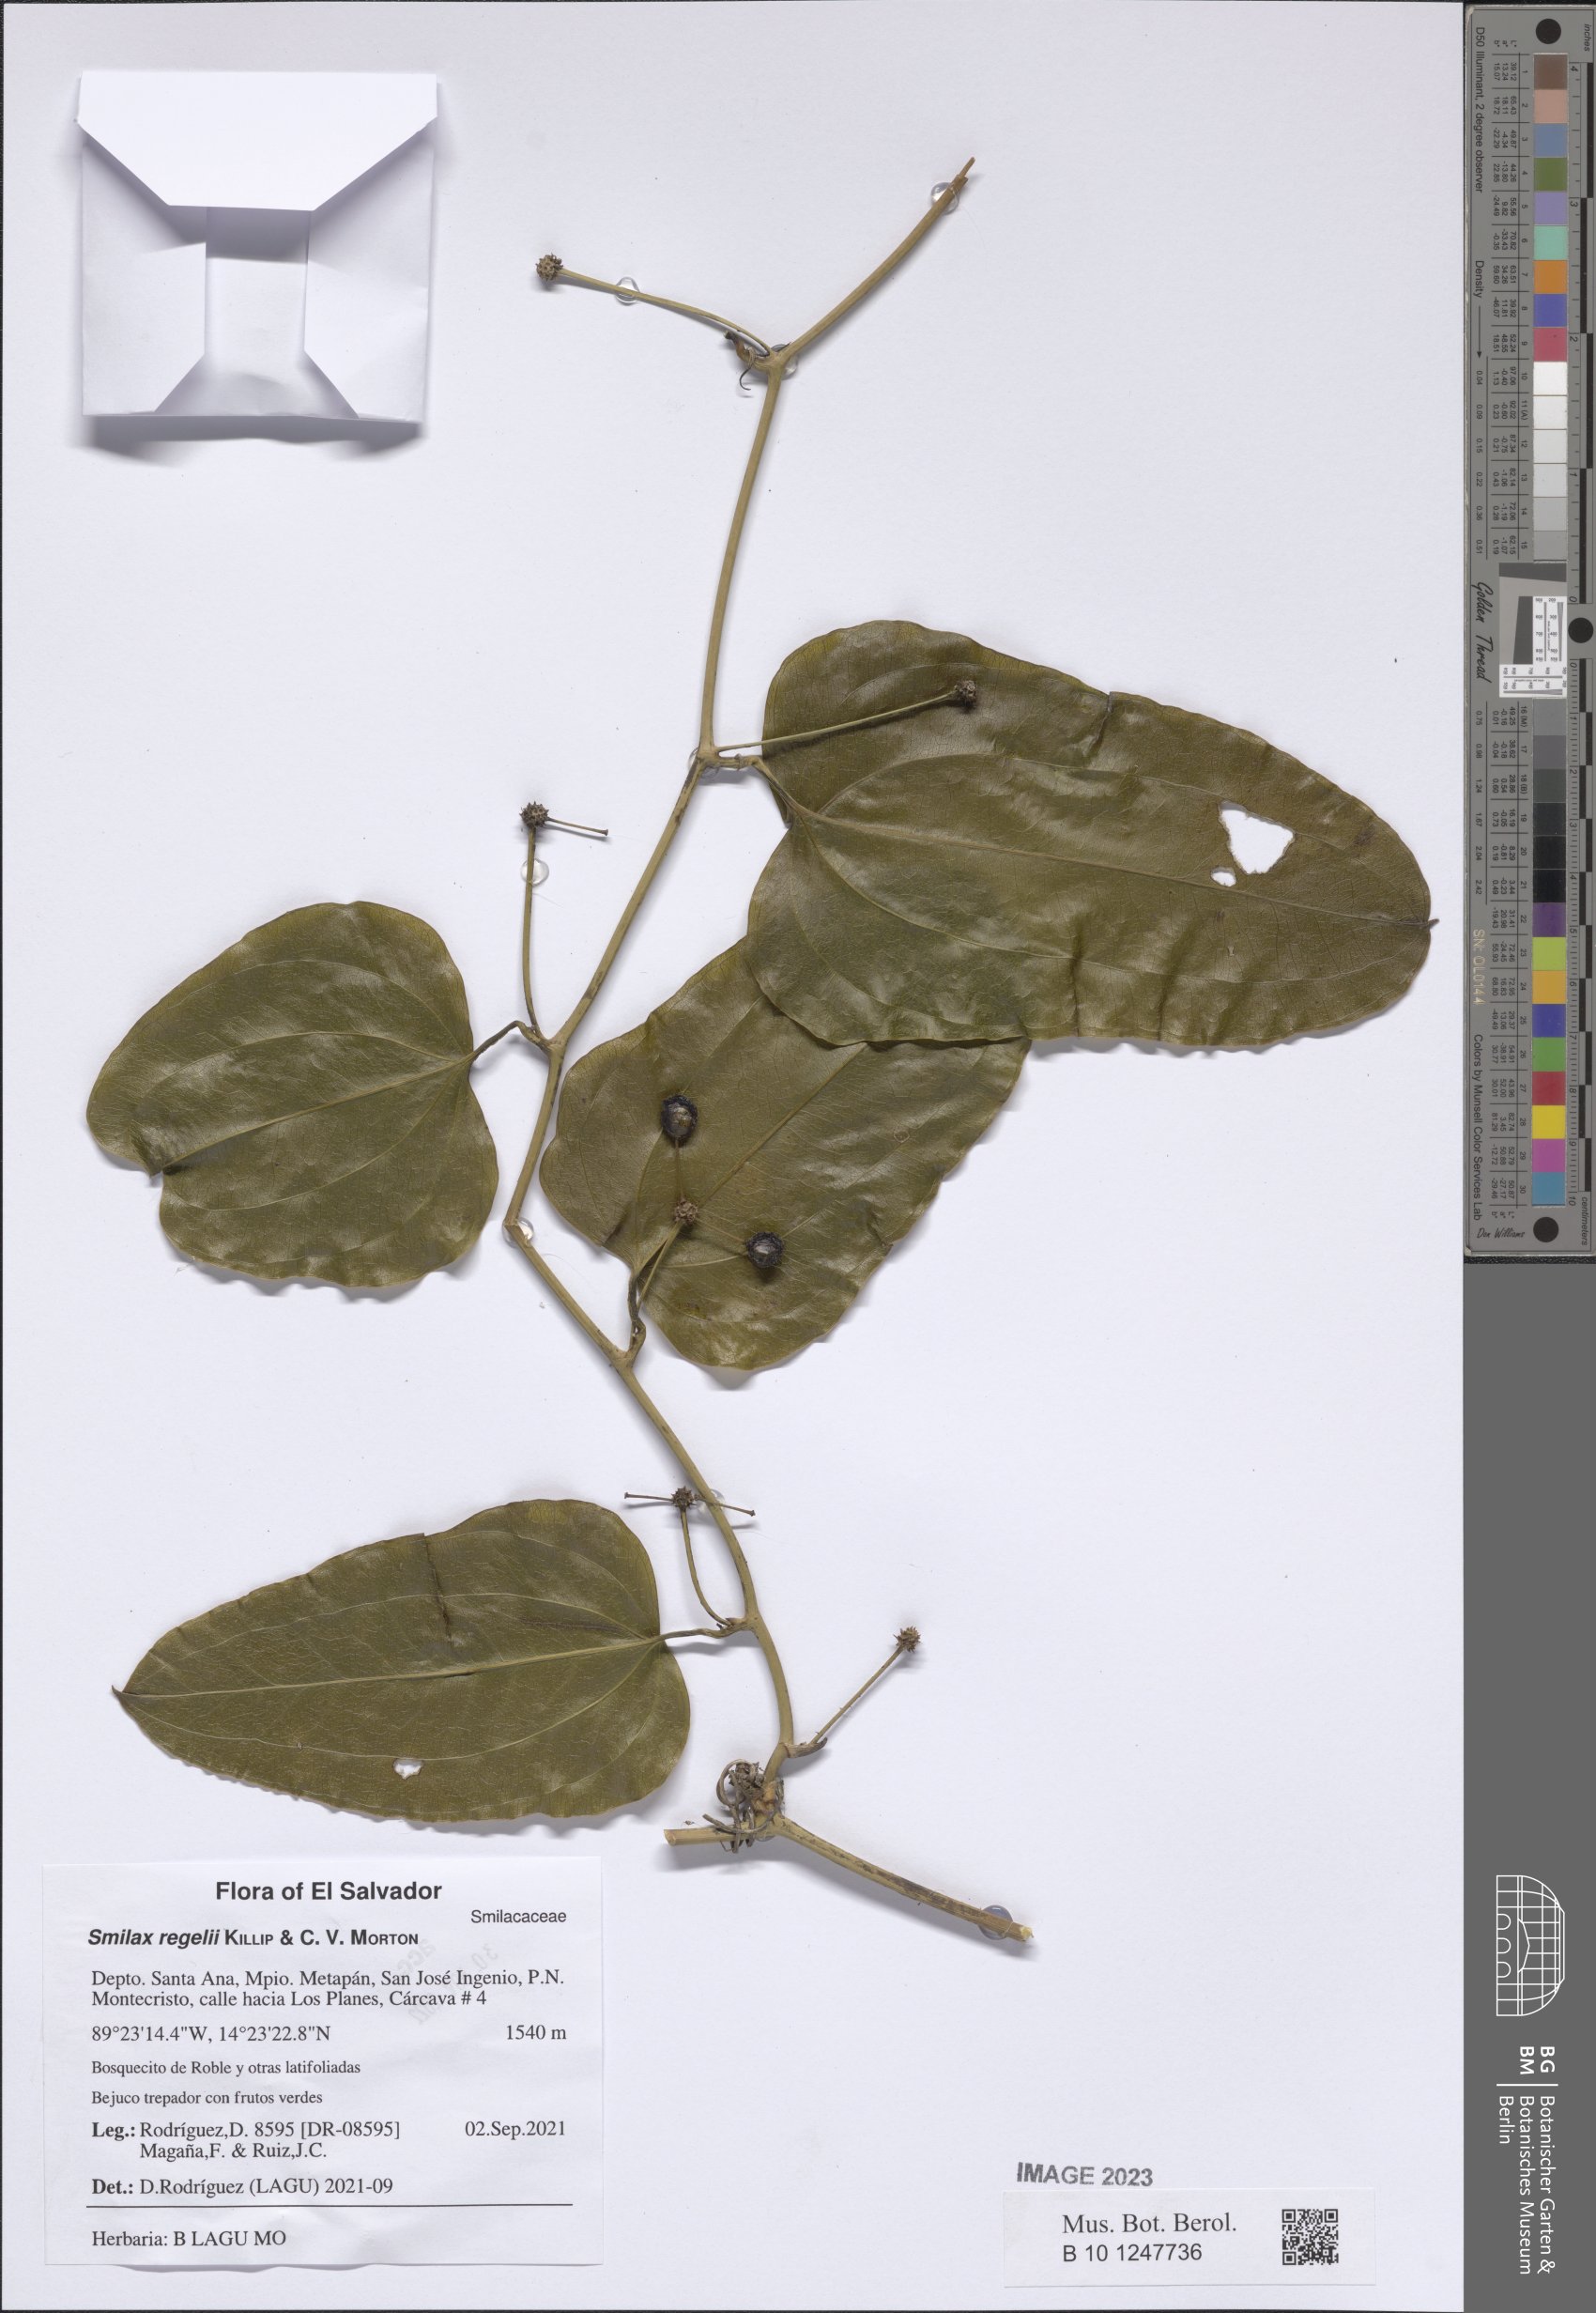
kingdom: Plantae
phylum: Tracheophyta
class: Liliopsida
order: Liliales
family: Smilacaceae
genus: Smilax
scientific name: Smilax ornata
